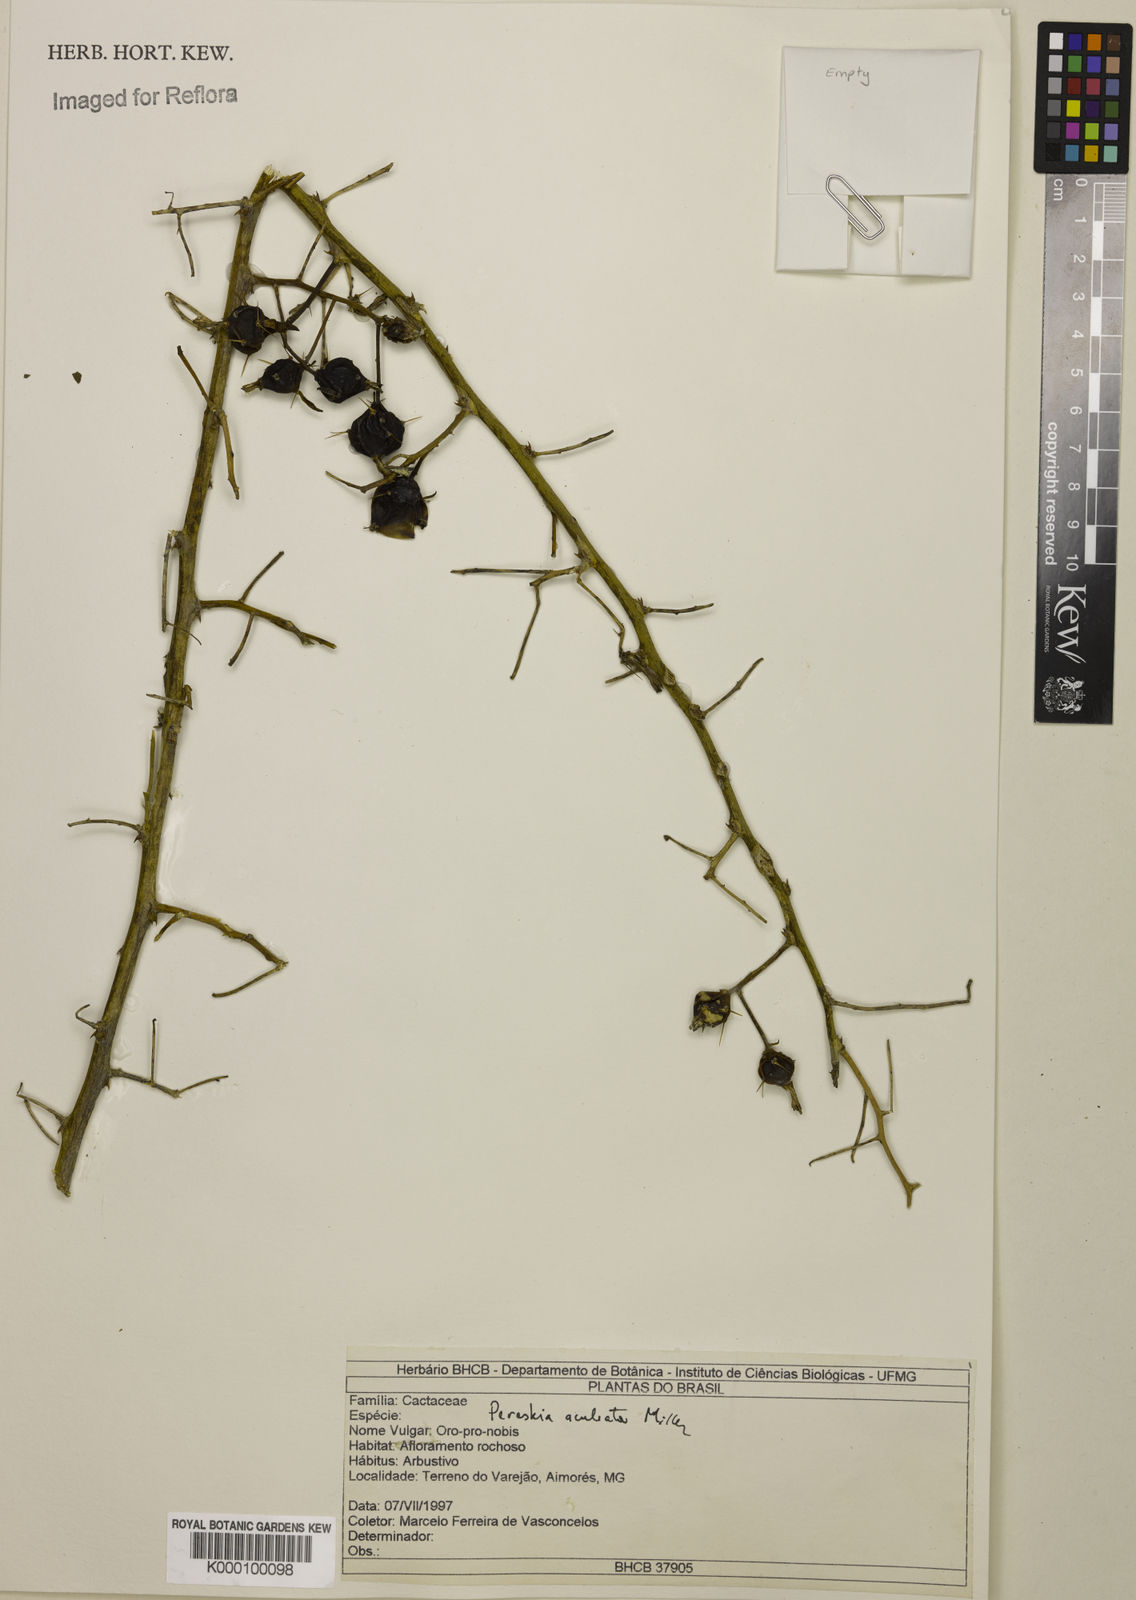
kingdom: Plantae
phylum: Tracheophyta
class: Magnoliopsida
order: Caryophyllales
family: Cactaceae
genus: Pereskia
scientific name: Pereskia aculeata
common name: Barbados gooseberry
